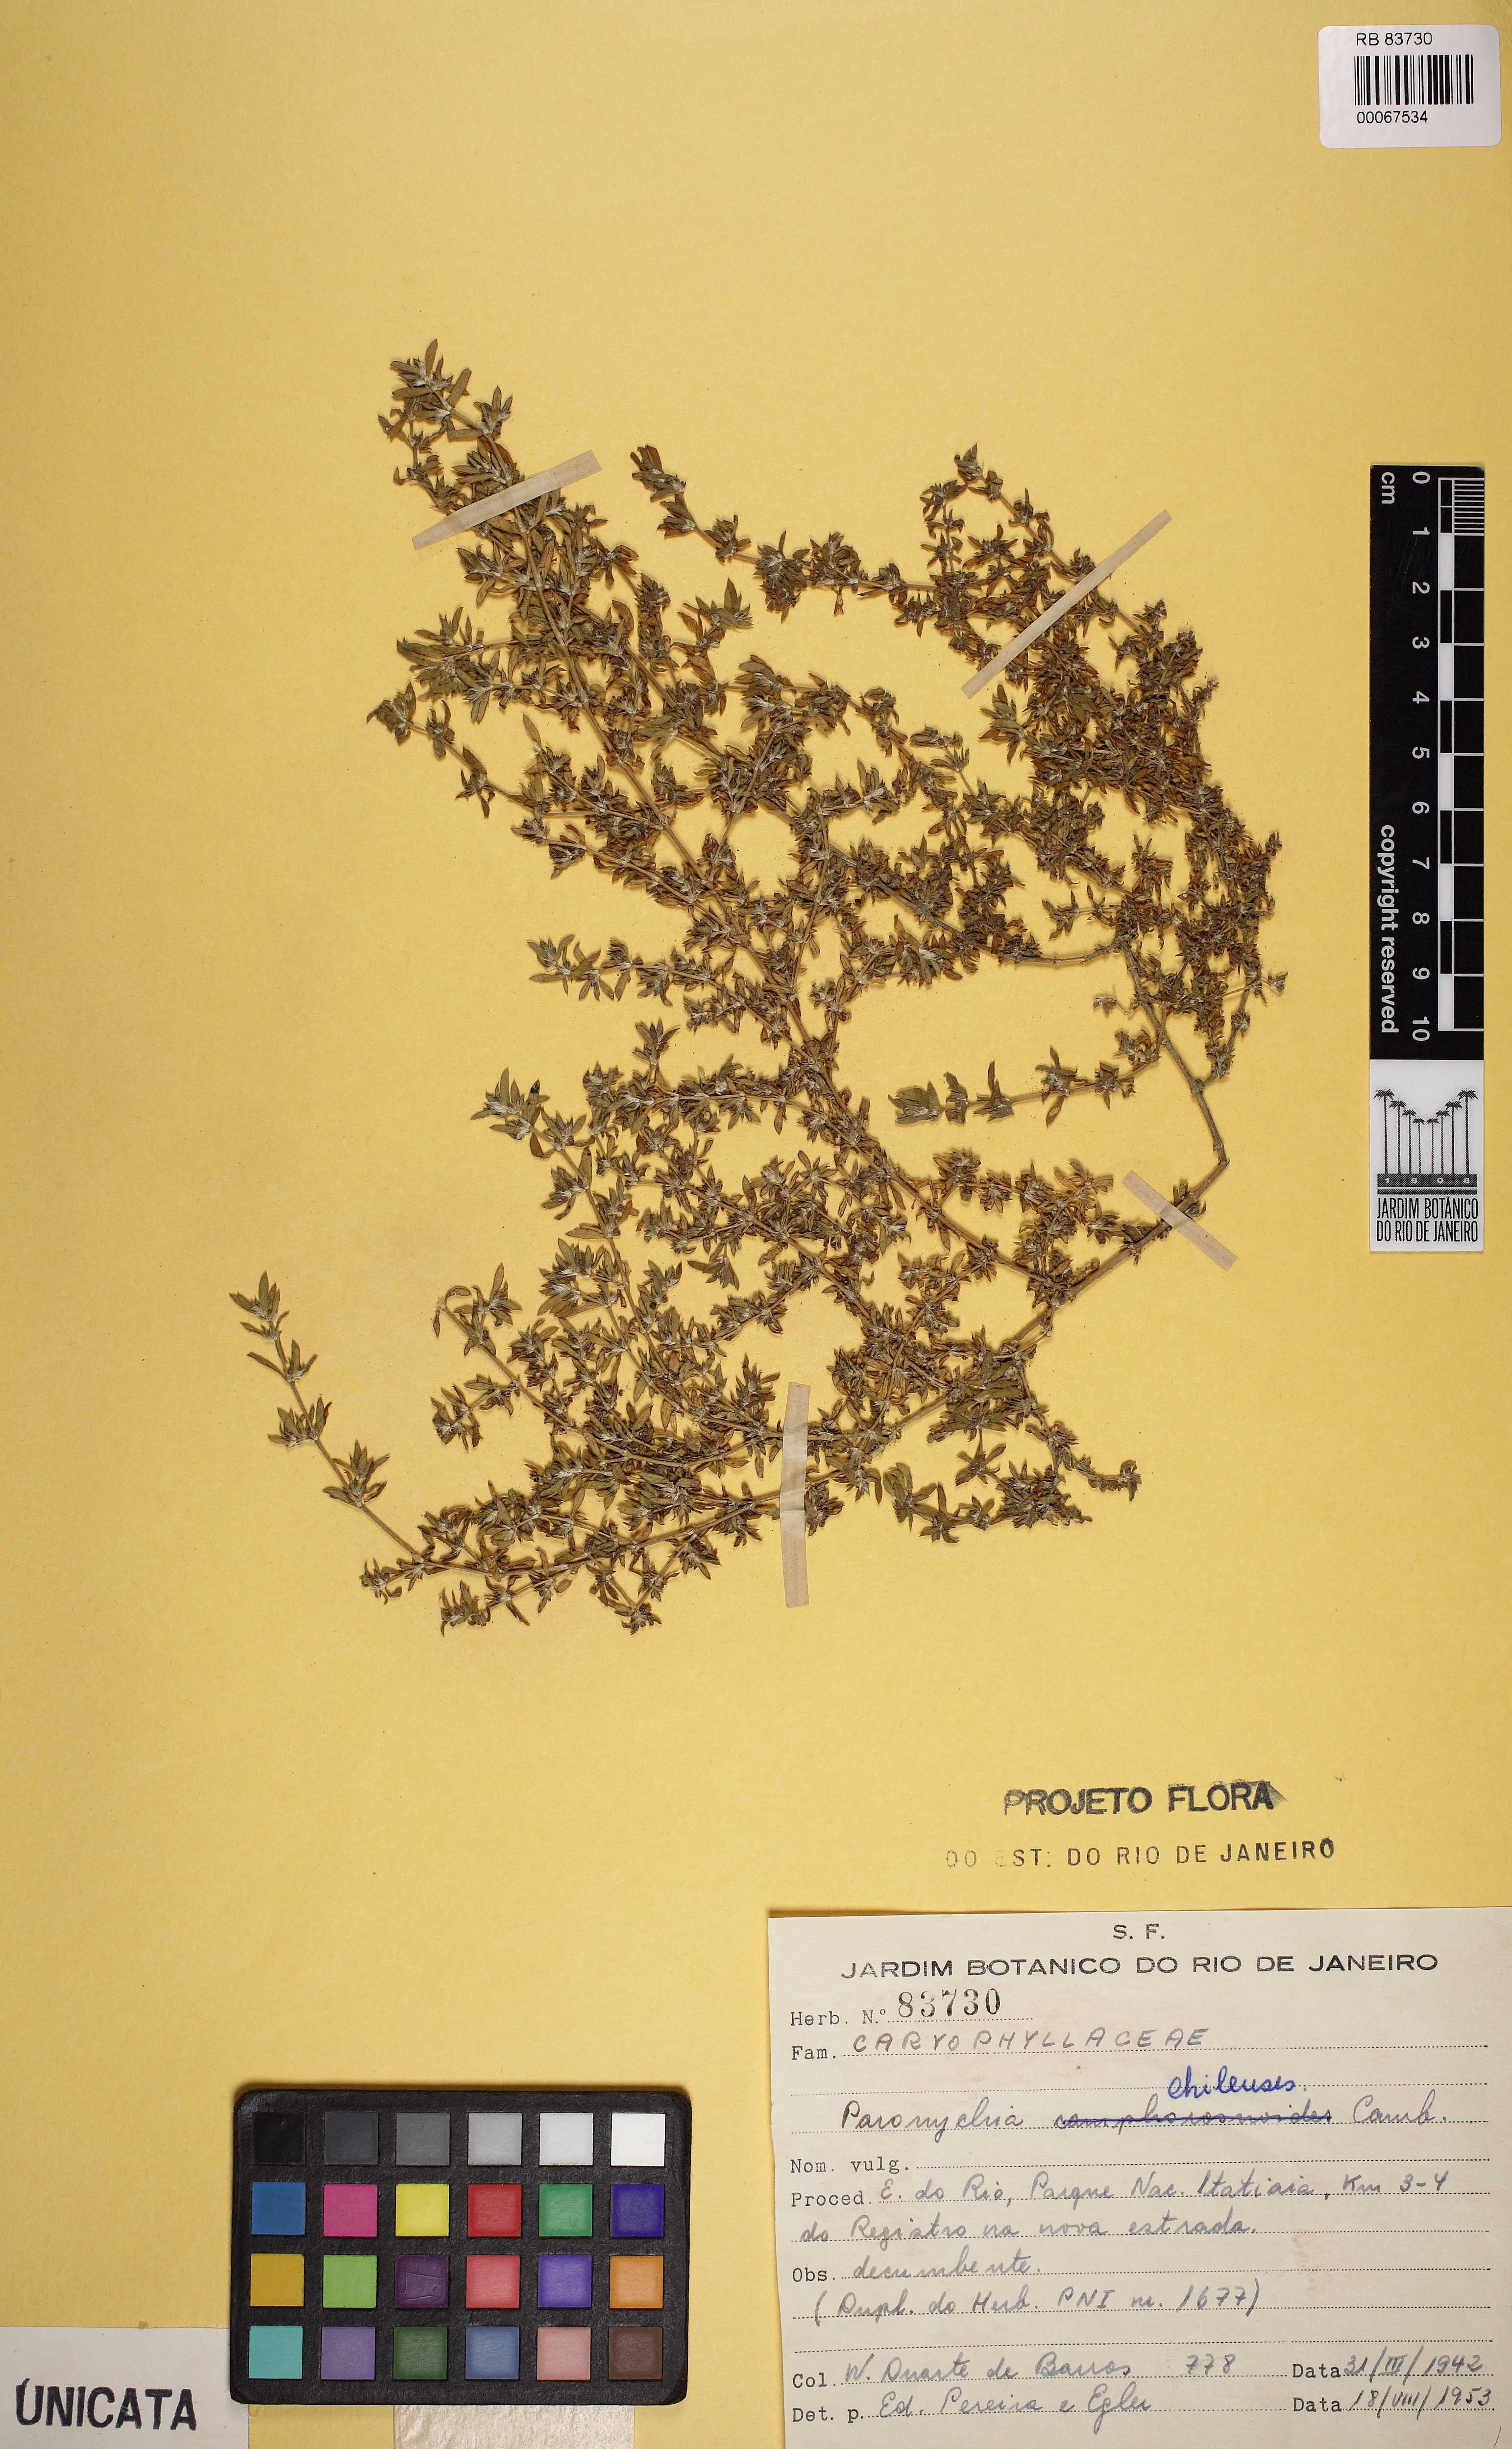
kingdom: Plantae
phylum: Tracheophyta
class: Magnoliopsida
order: Caryophyllales
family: Caryophyllaceae
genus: Paronychia
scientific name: Paronychia chilensis
